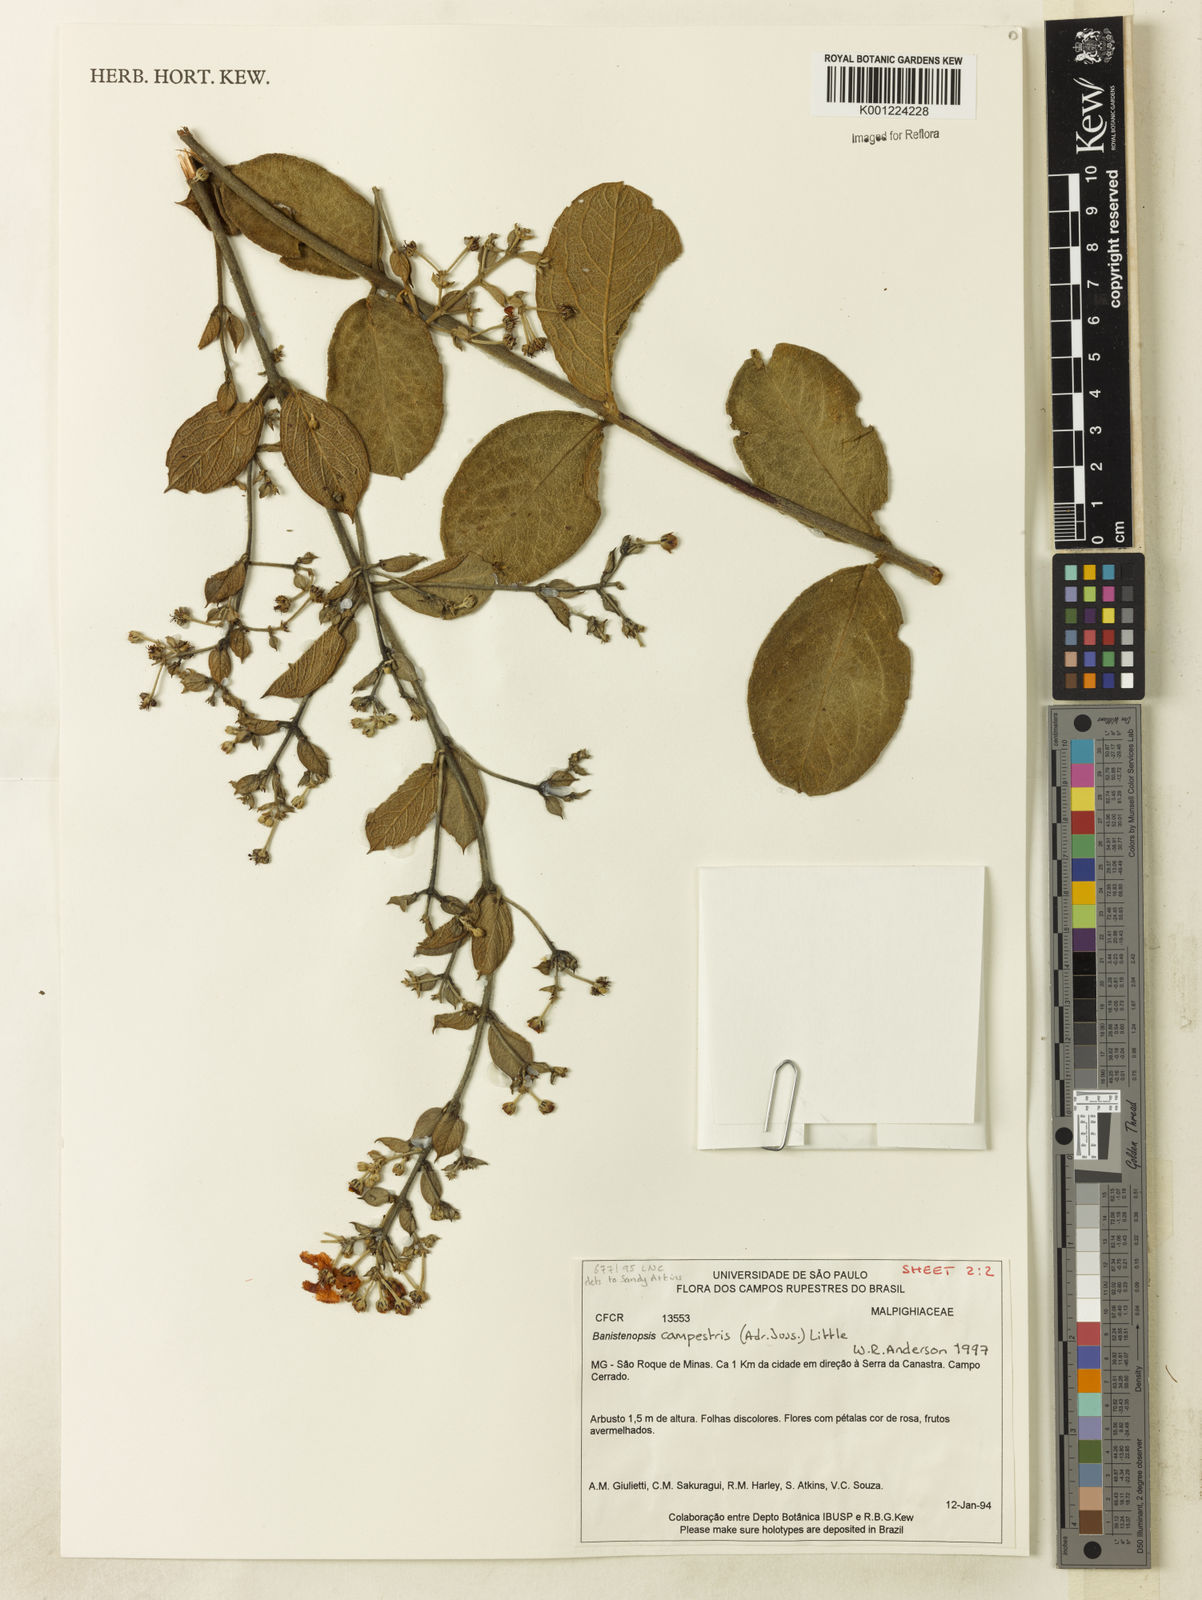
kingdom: Plantae
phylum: Tracheophyta
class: Magnoliopsida
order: Malpighiales
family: Malpighiaceae
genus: Banisteriopsis
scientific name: Banisteriopsis campestris
